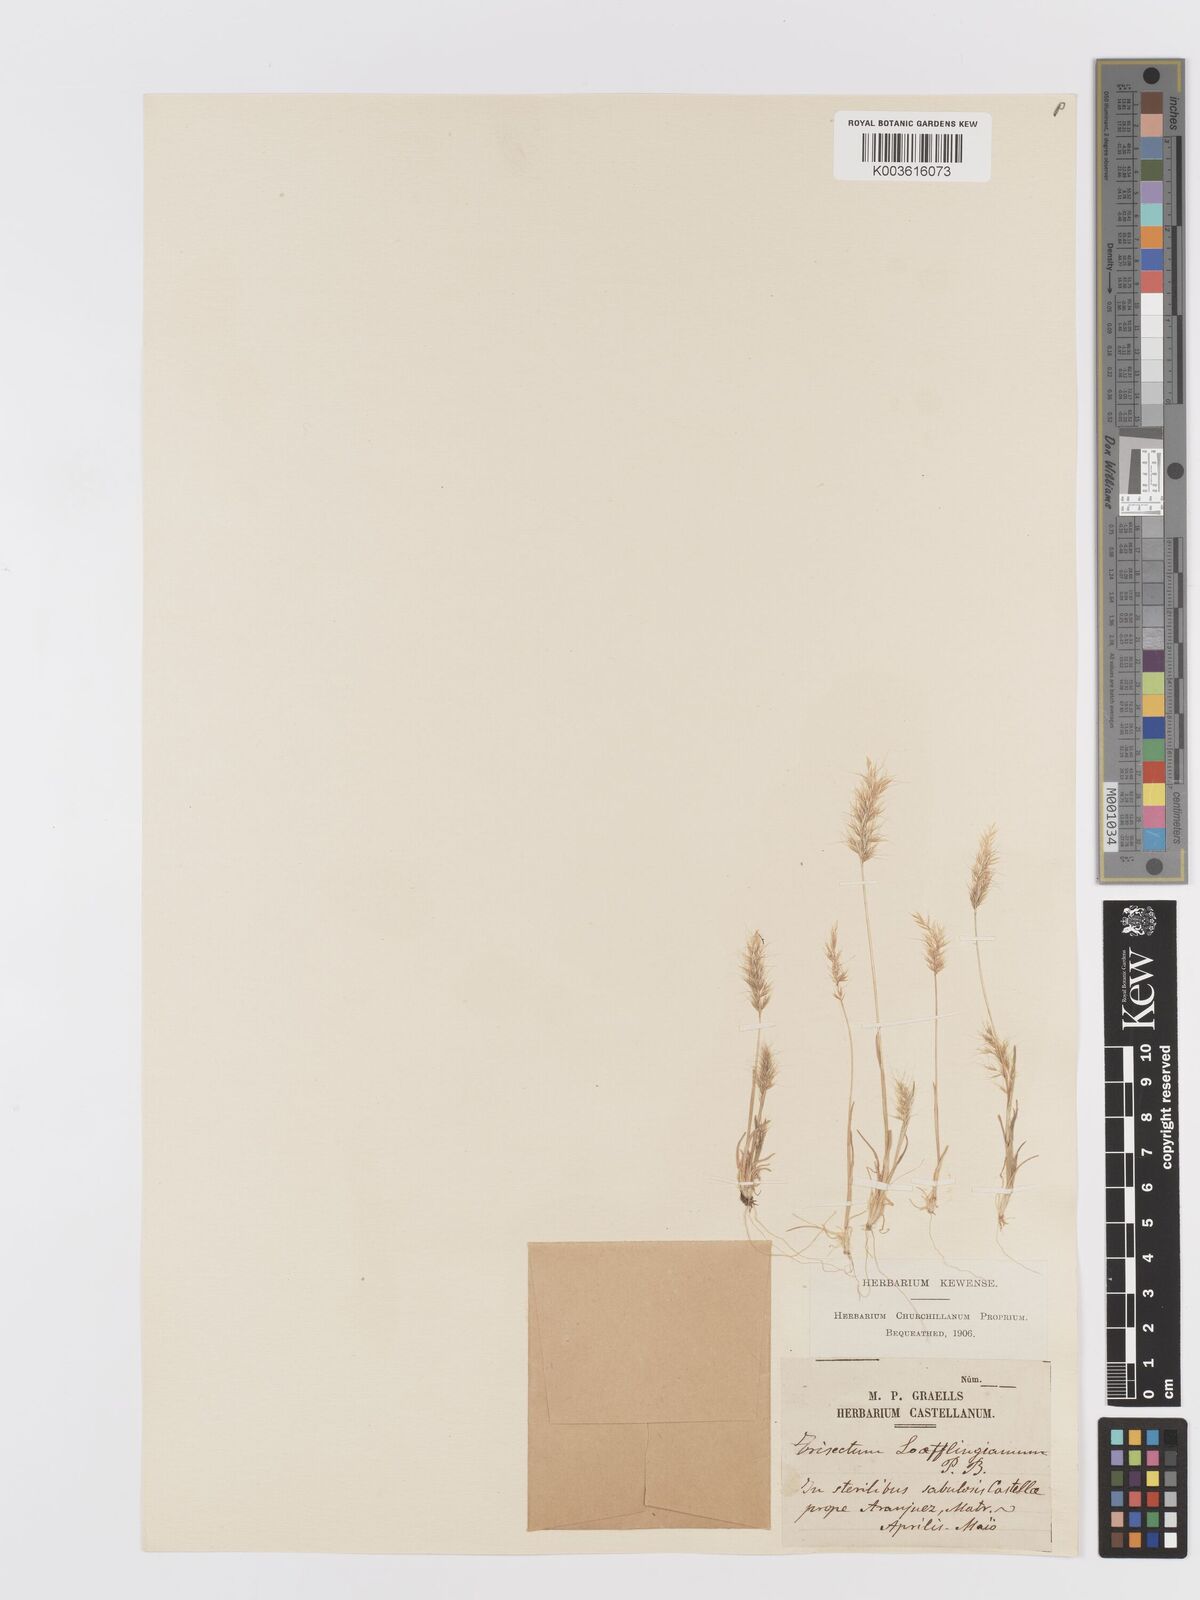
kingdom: Plantae
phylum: Tracheophyta
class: Liliopsida
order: Poales
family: Poaceae
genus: Trisetaria
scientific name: Trisetaria loeflingiana
